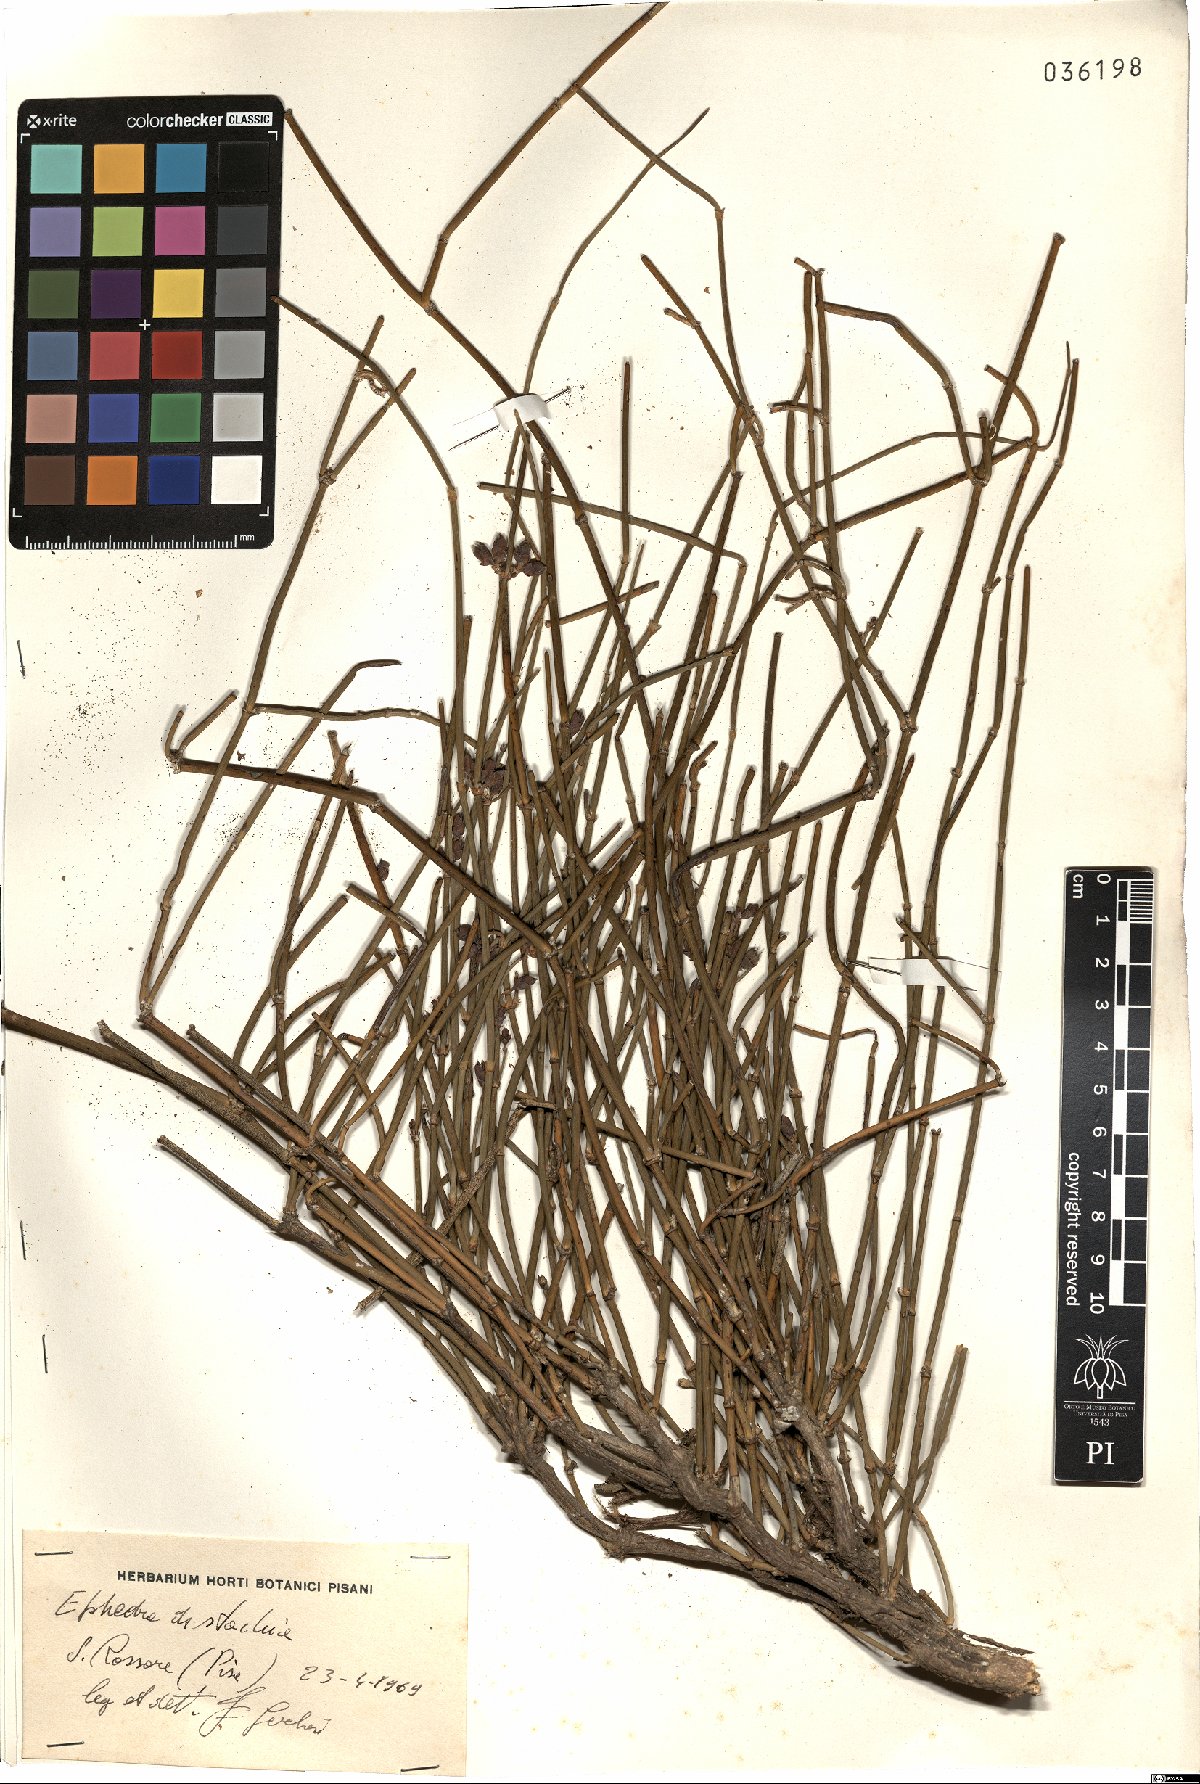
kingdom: Plantae
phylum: Tracheophyta
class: Gnetopsida
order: Ephedrales
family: Ephedraceae
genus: Ephedra
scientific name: Ephedra distachya
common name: Sea grape
